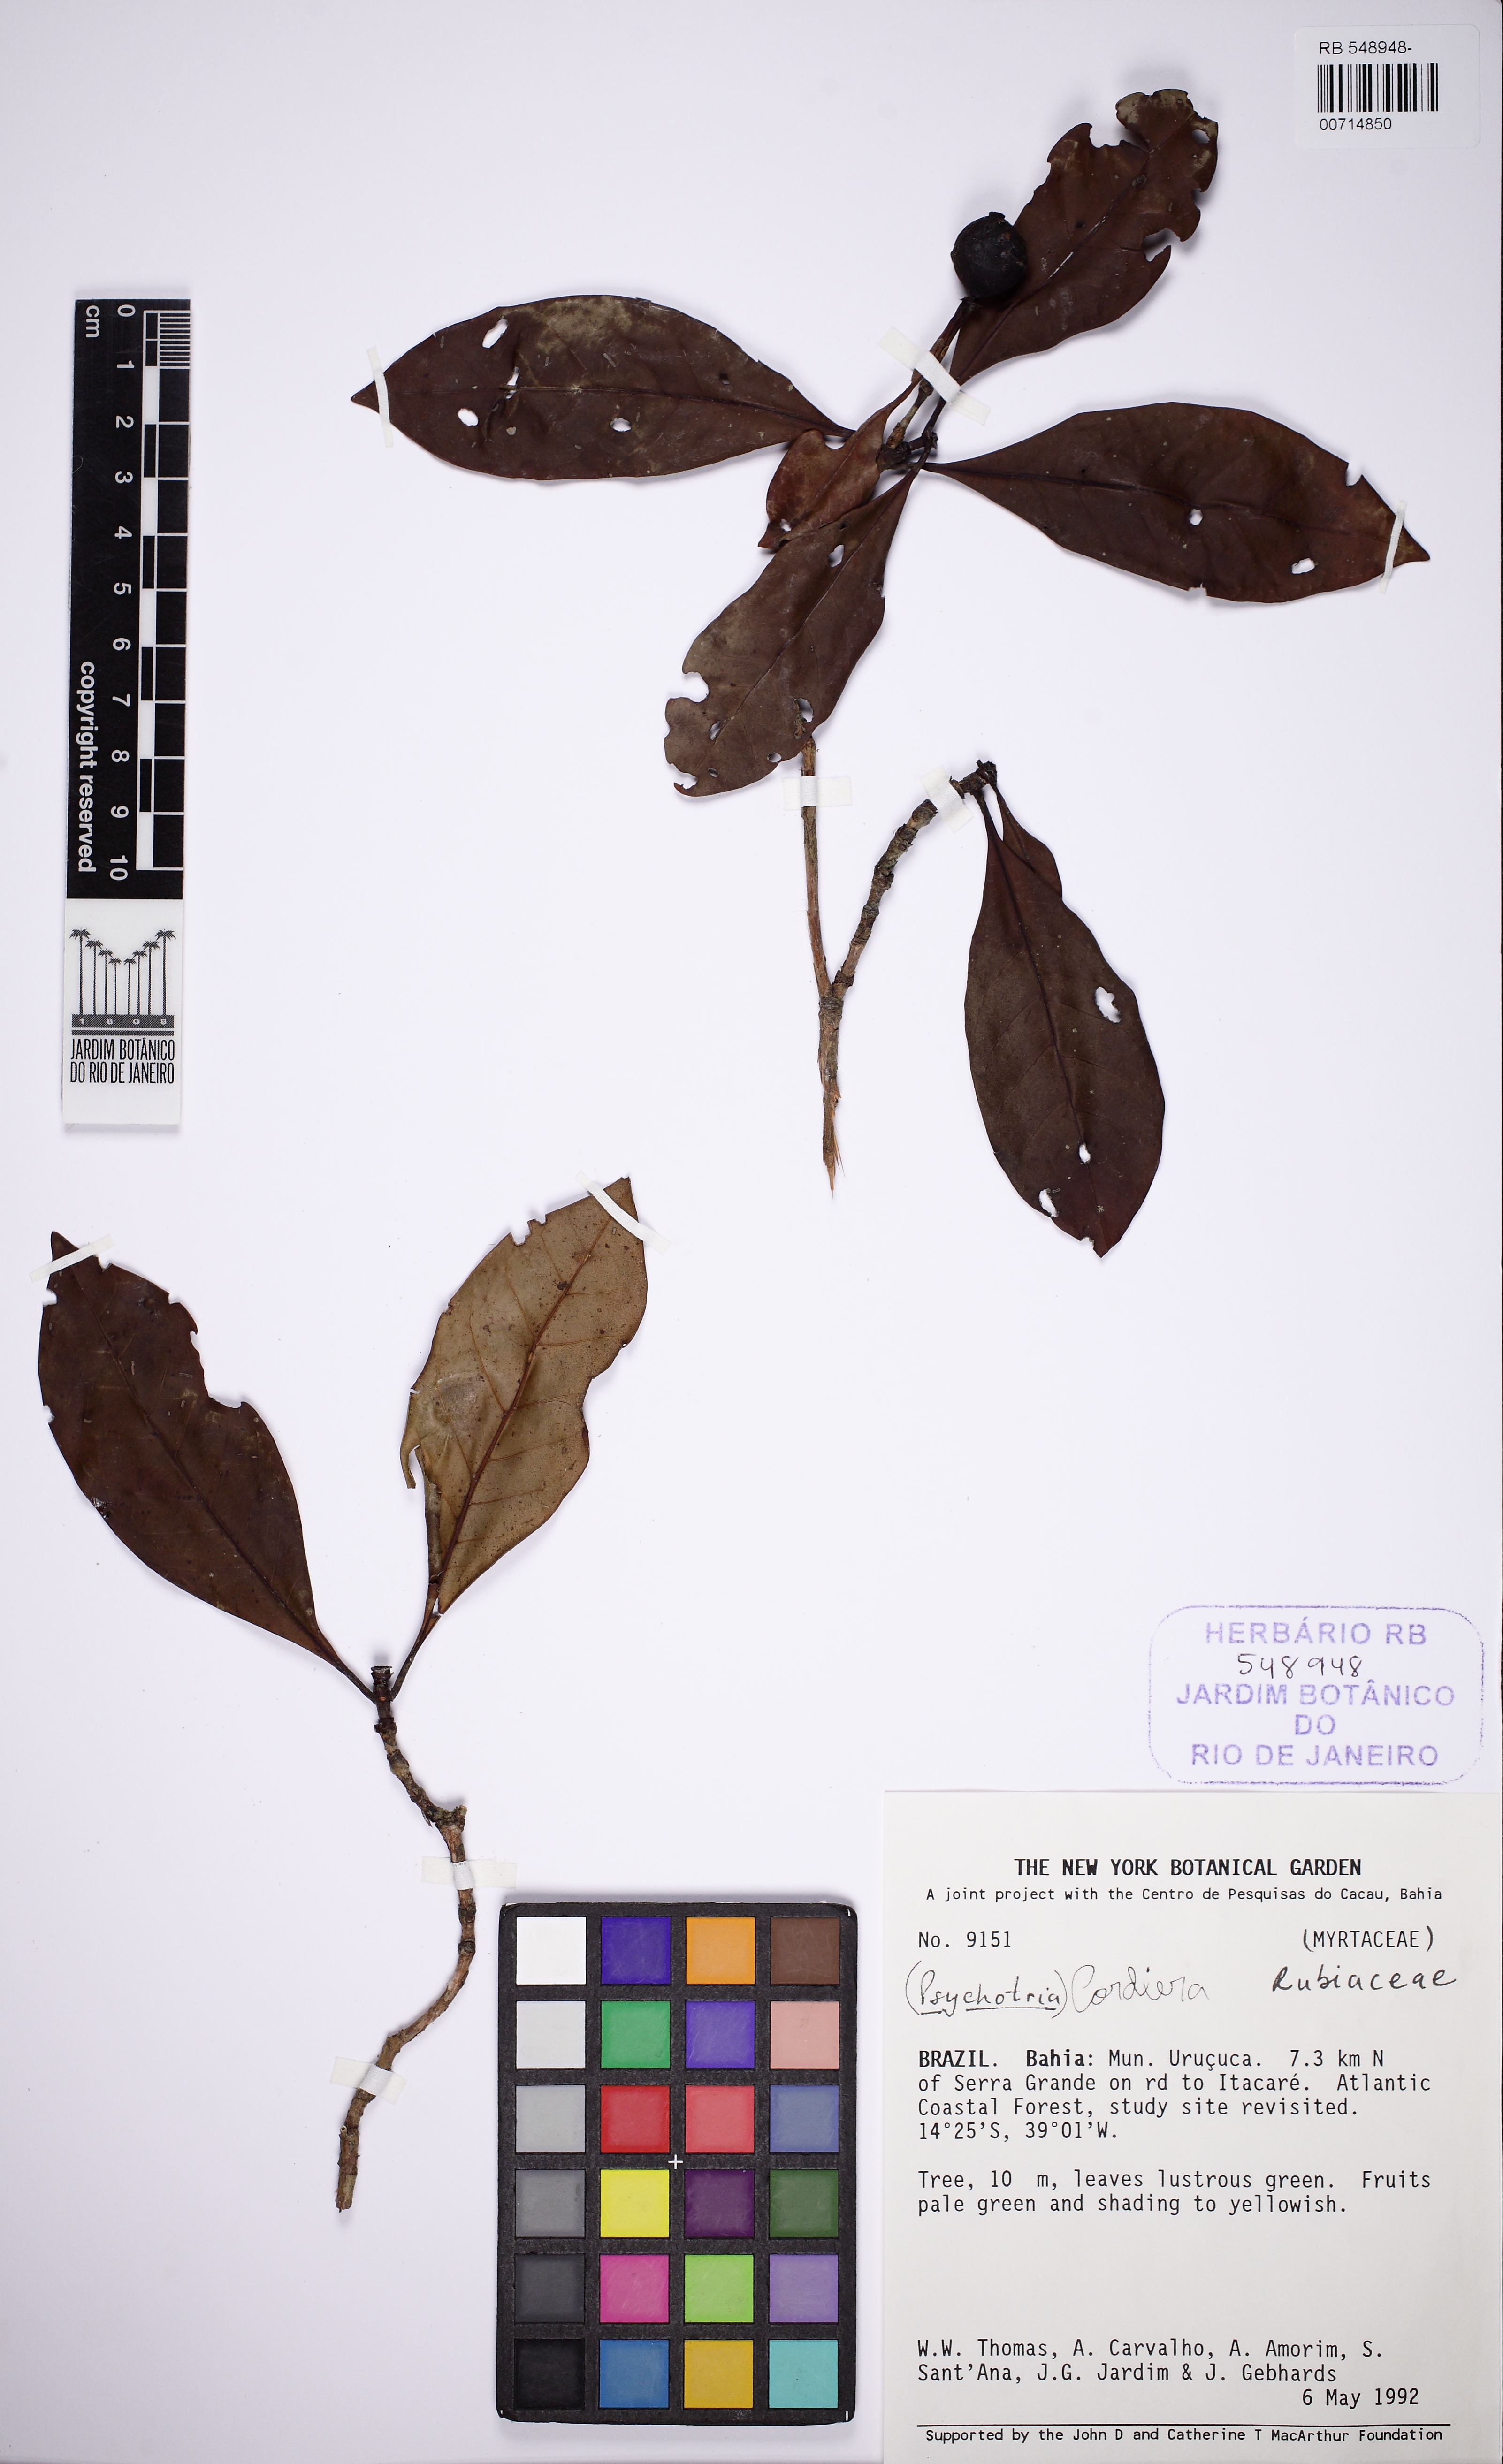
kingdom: Plantae
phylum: Tracheophyta
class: Magnoliopsida
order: Gentianales
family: Rubiaceae
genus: Cordiera
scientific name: Cordiera bahiensis
